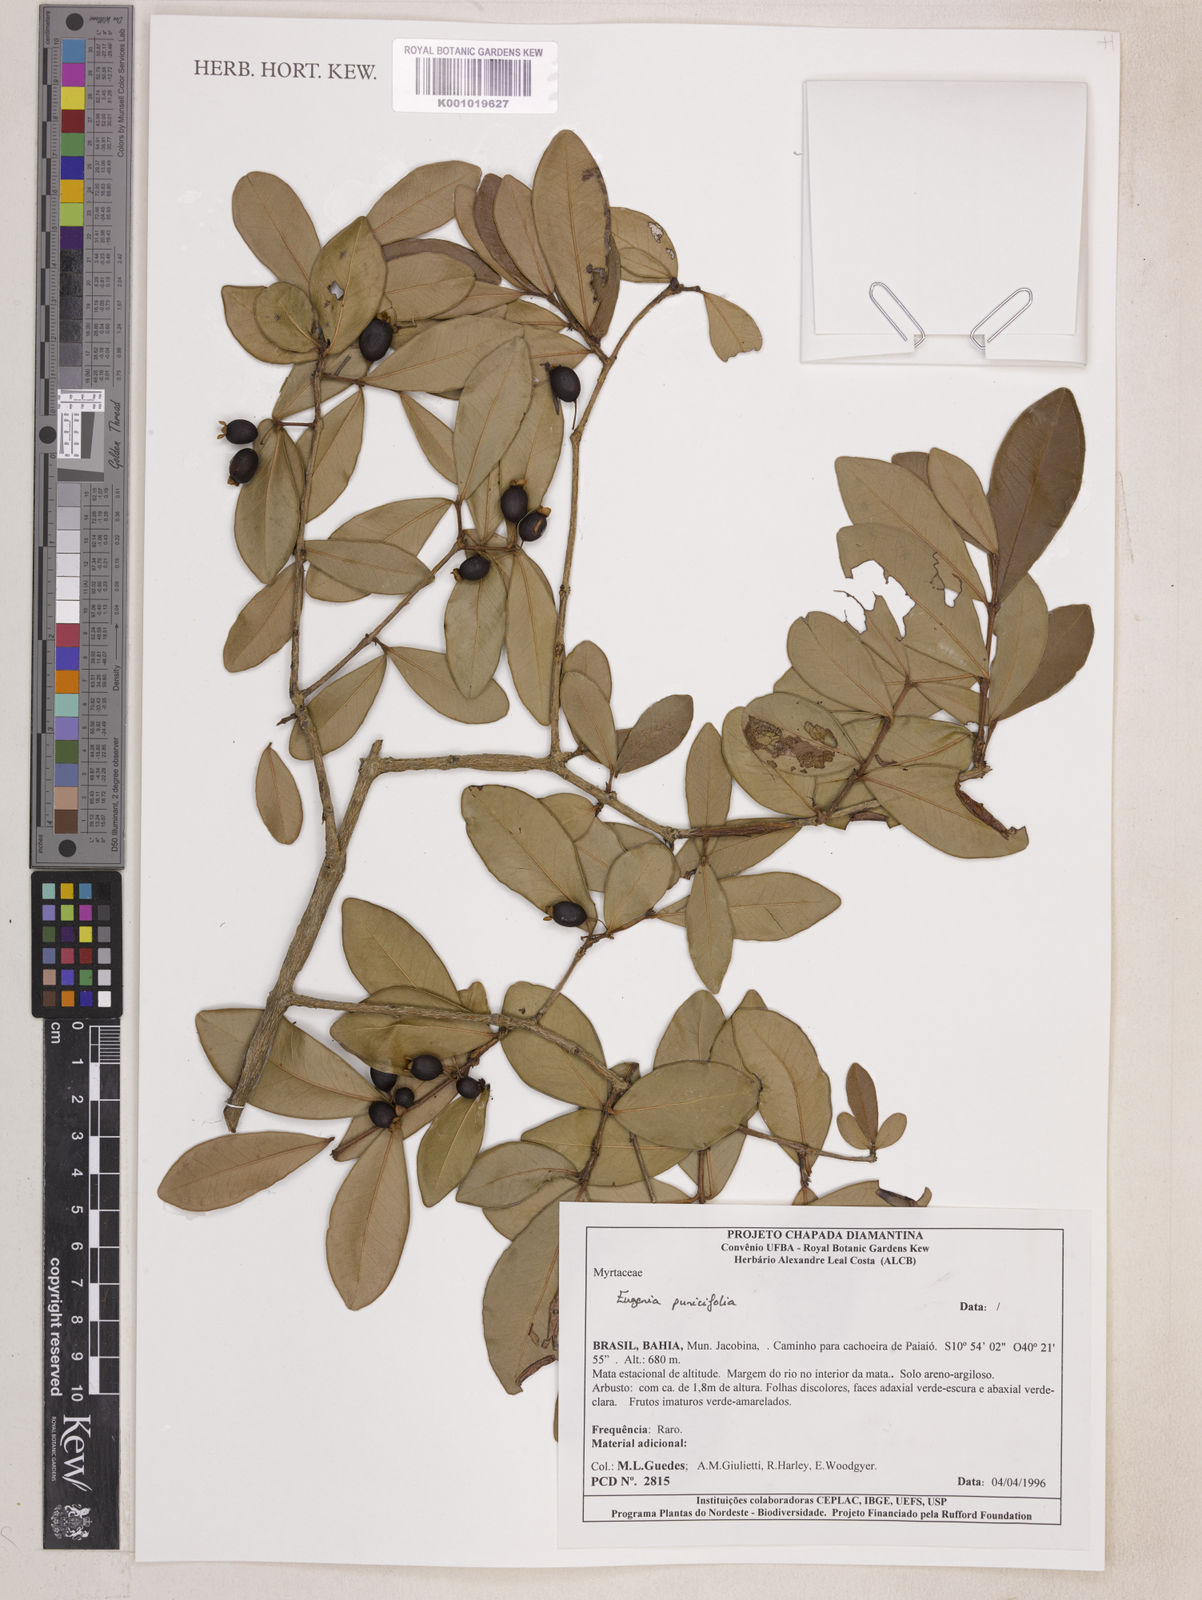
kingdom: Plantae
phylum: Tracheophyta
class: Magnoliopsida
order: Myrtales
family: Myrtaceae
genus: Eugenia
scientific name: Eugenia punicifolia
